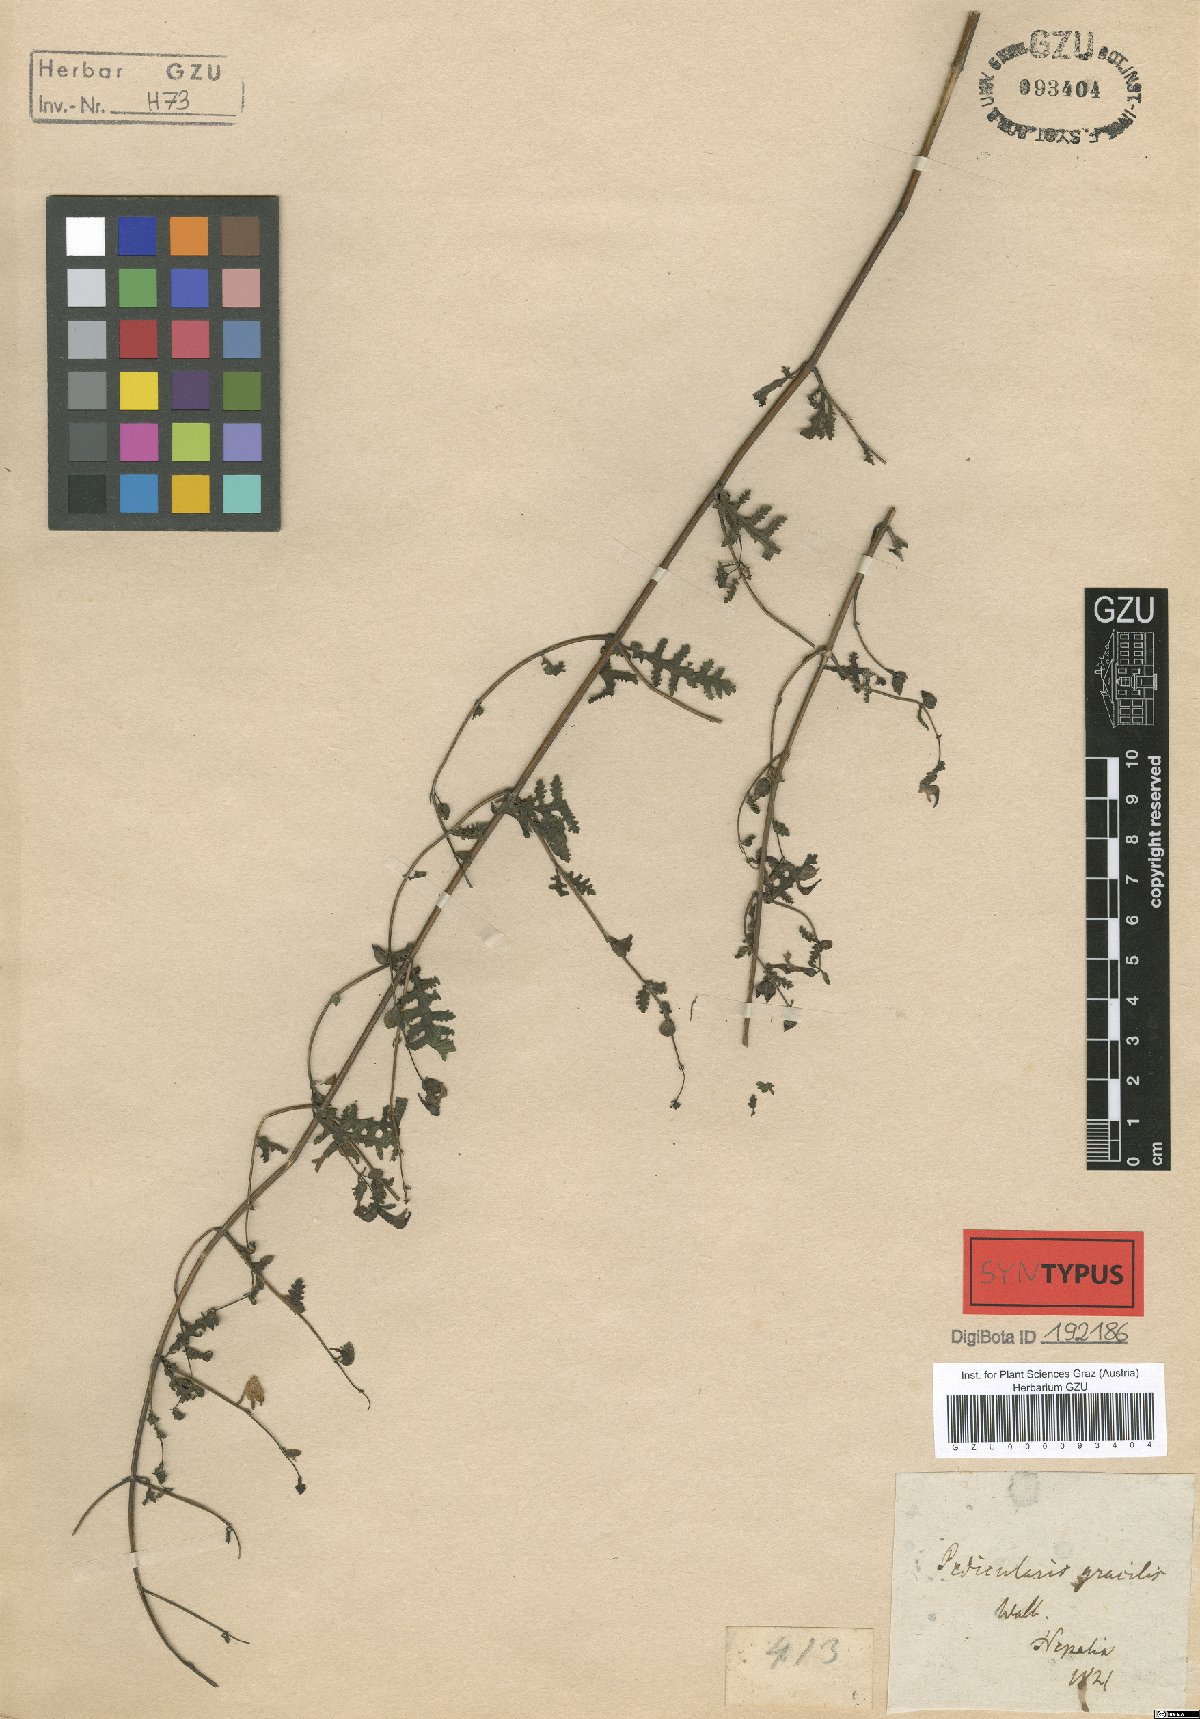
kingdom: Plantae
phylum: Tracheophyta
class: Magnoliopsida
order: Lamiales
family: Orobanchaceae
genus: Pedicularis
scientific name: Pedicularis gracilis
